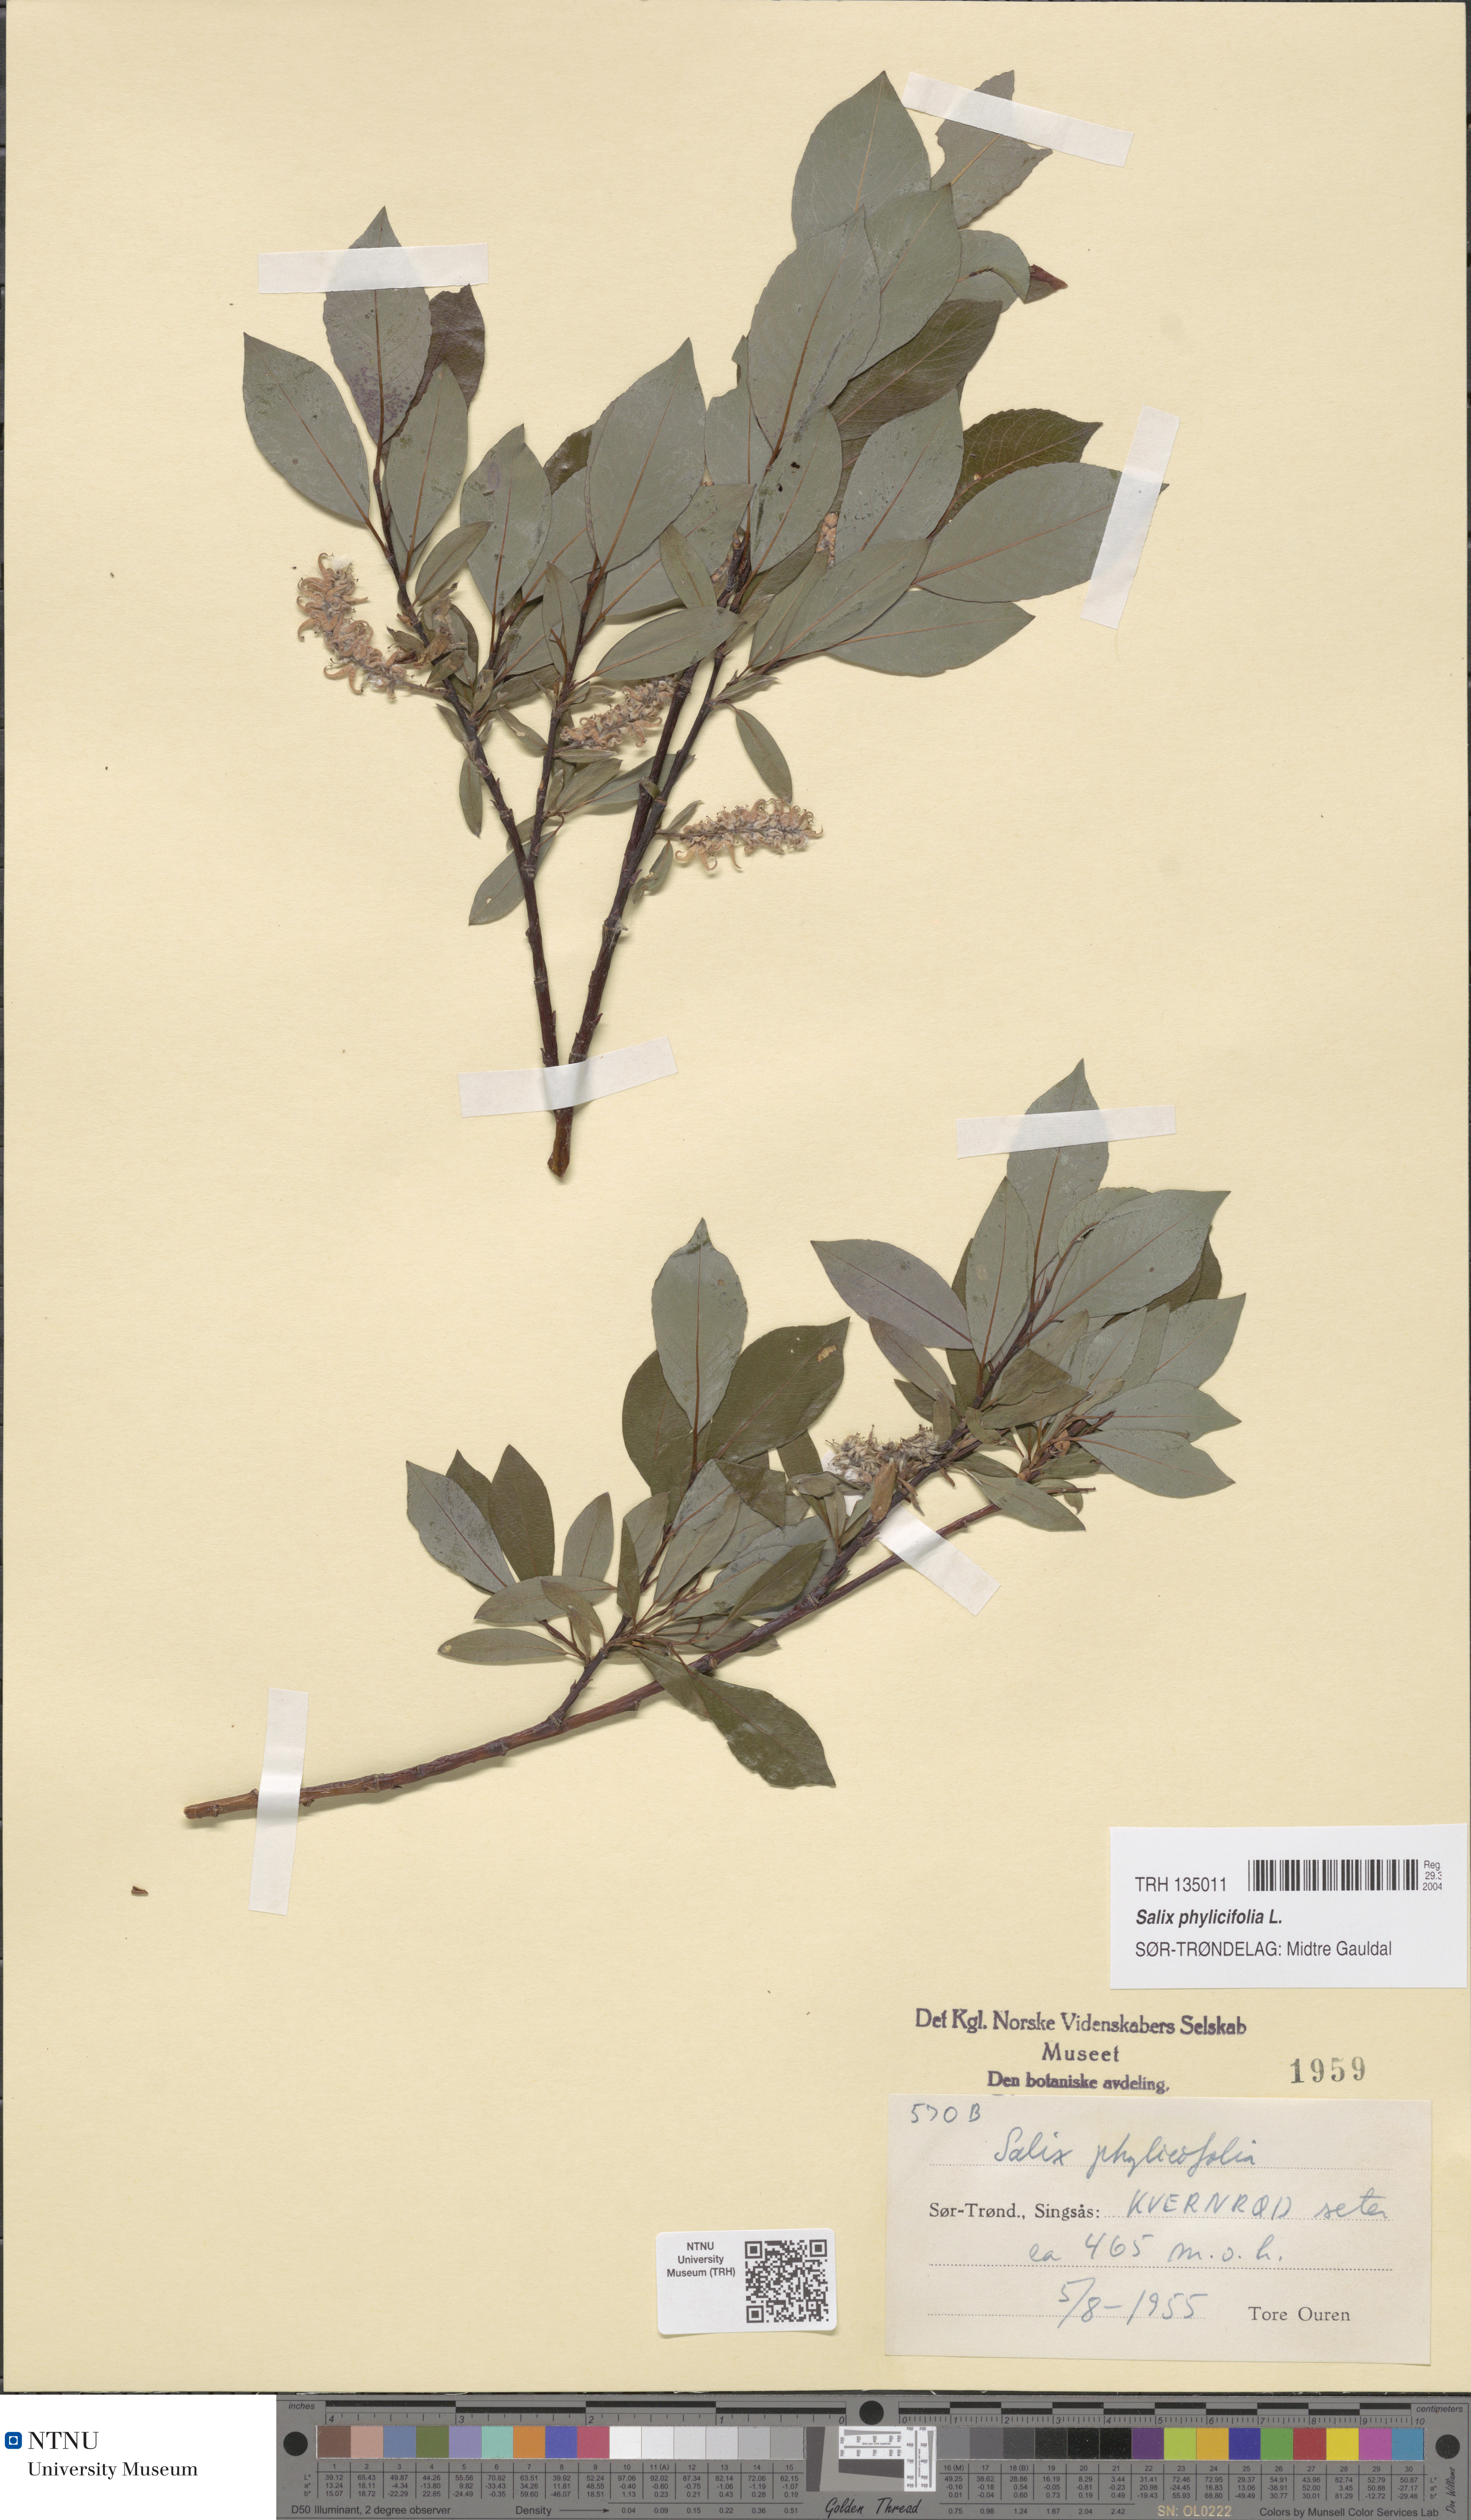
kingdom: Plantae
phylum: Tracheophyta
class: Magnoliopsida
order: Malpighiales
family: Salicaceae
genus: Salix
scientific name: Salix phylicifolia
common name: Tea-leaved willow
